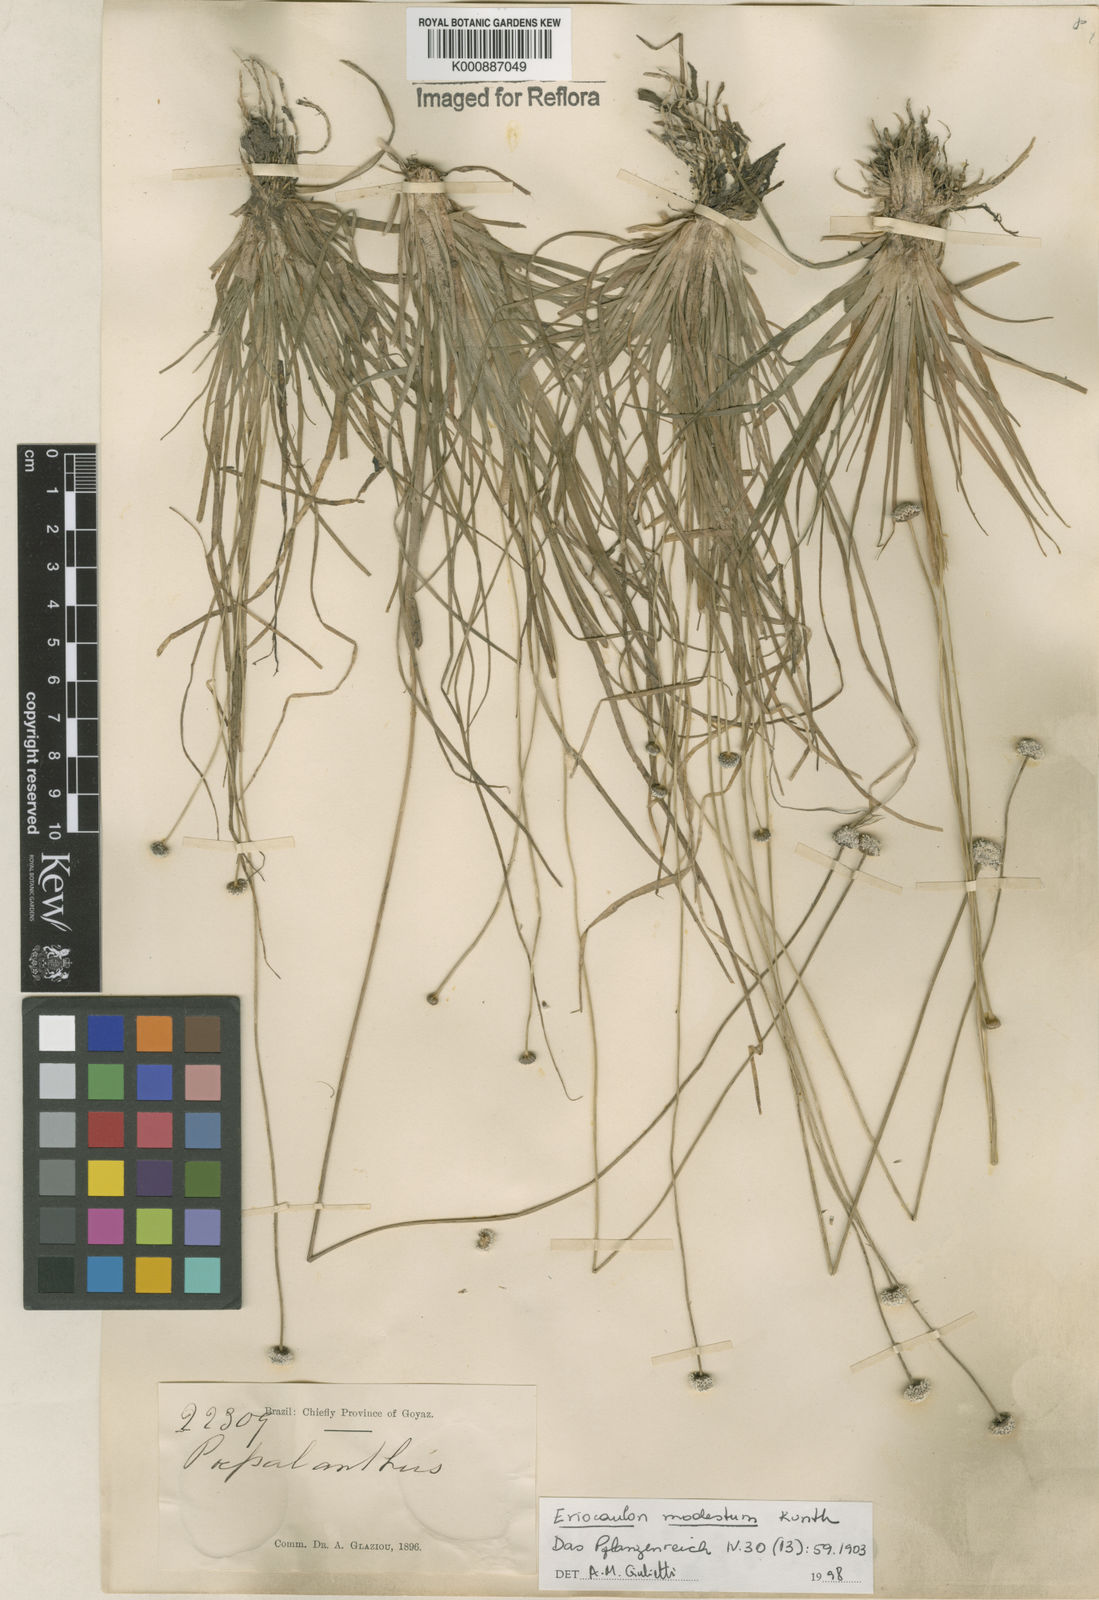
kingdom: Plantae
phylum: Tracheophyta
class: Liliopsida
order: Poales
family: Eriocaulaceae
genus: Eriocaulon
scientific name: Eriocaulon modestum
